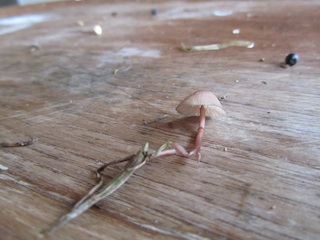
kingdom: Fungi
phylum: Basidiomycota
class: Agaricomycetes
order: Agaricales
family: Mycenaceae
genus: Mycena
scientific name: Mycena sanguinolenta
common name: rødmælket huesvamp
